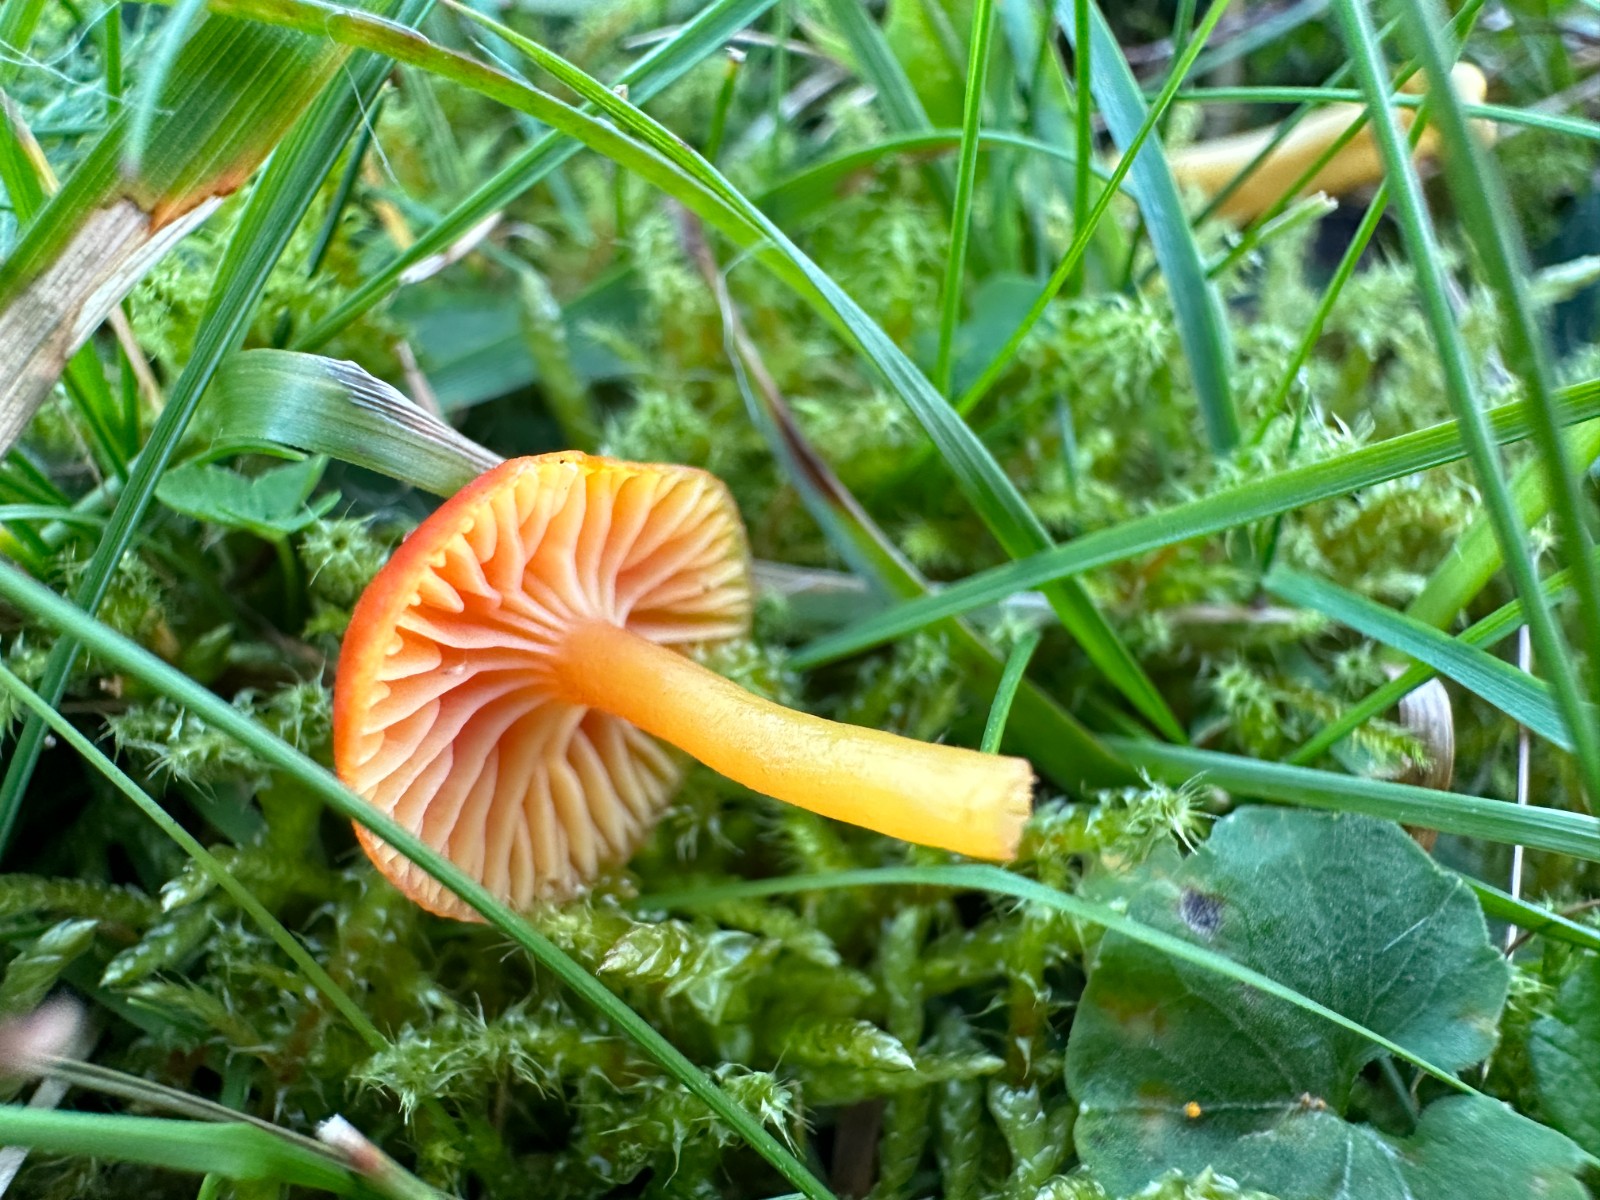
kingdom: Fungi
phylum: Basidiomycota
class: Agaricomycetes
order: Agaricales
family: Hygrophoraceae
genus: Hygrocybe
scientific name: Hygrocybe insipida
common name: liden vokshat
